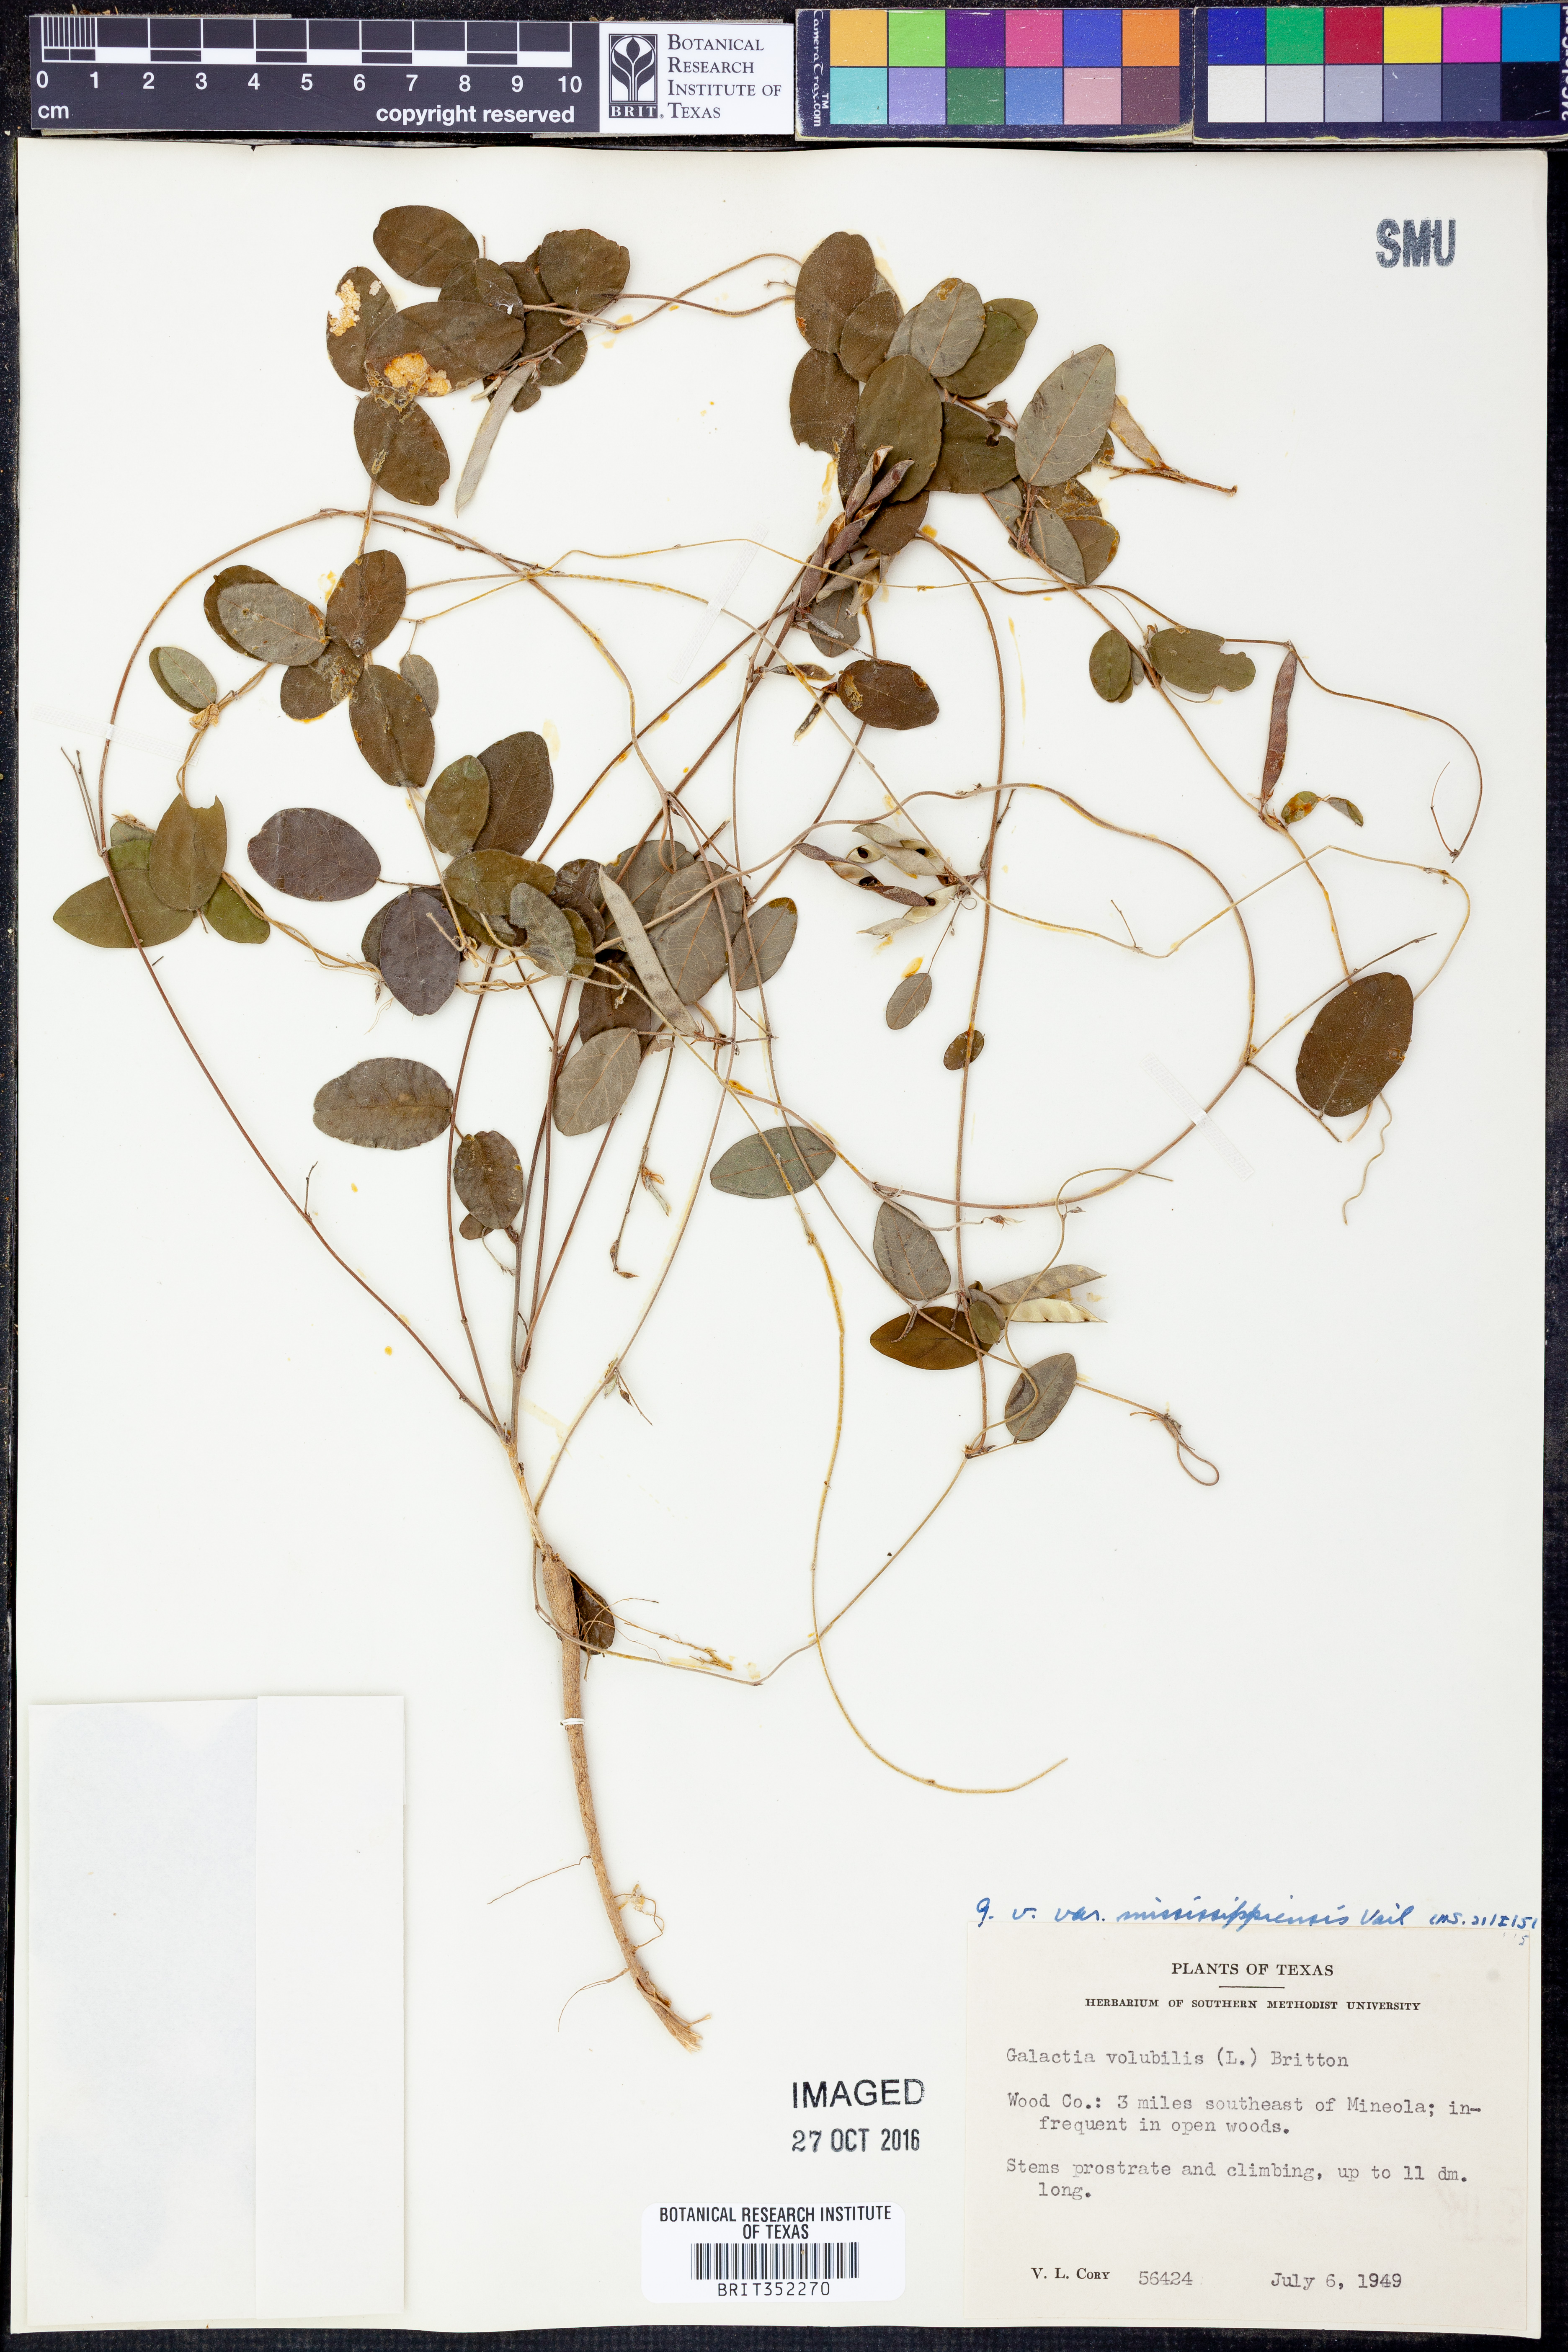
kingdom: Plantae
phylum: Tracheophyta
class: Magnoliopsida
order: Fabales
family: Fabaceae
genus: Galactia
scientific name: Galactia volubilis
